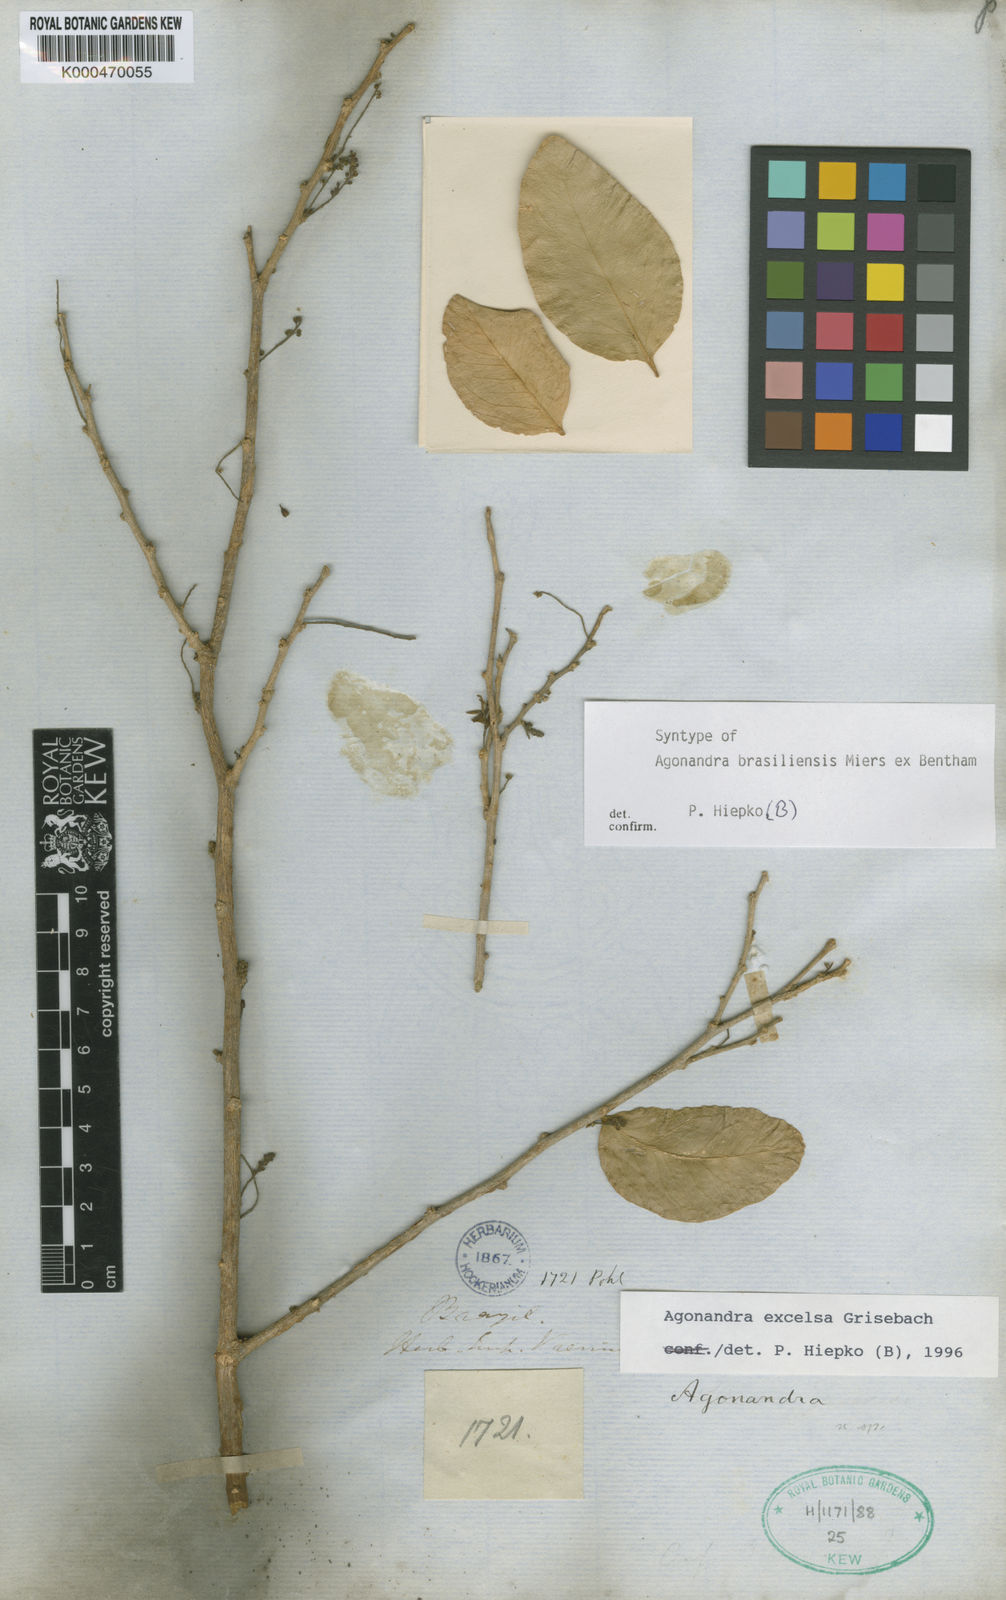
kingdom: Plantae
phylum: Tracheophyta
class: Magnoliopsida
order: Santalales
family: Opiliaceae
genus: Agonandra
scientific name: Agonandra excelsa
